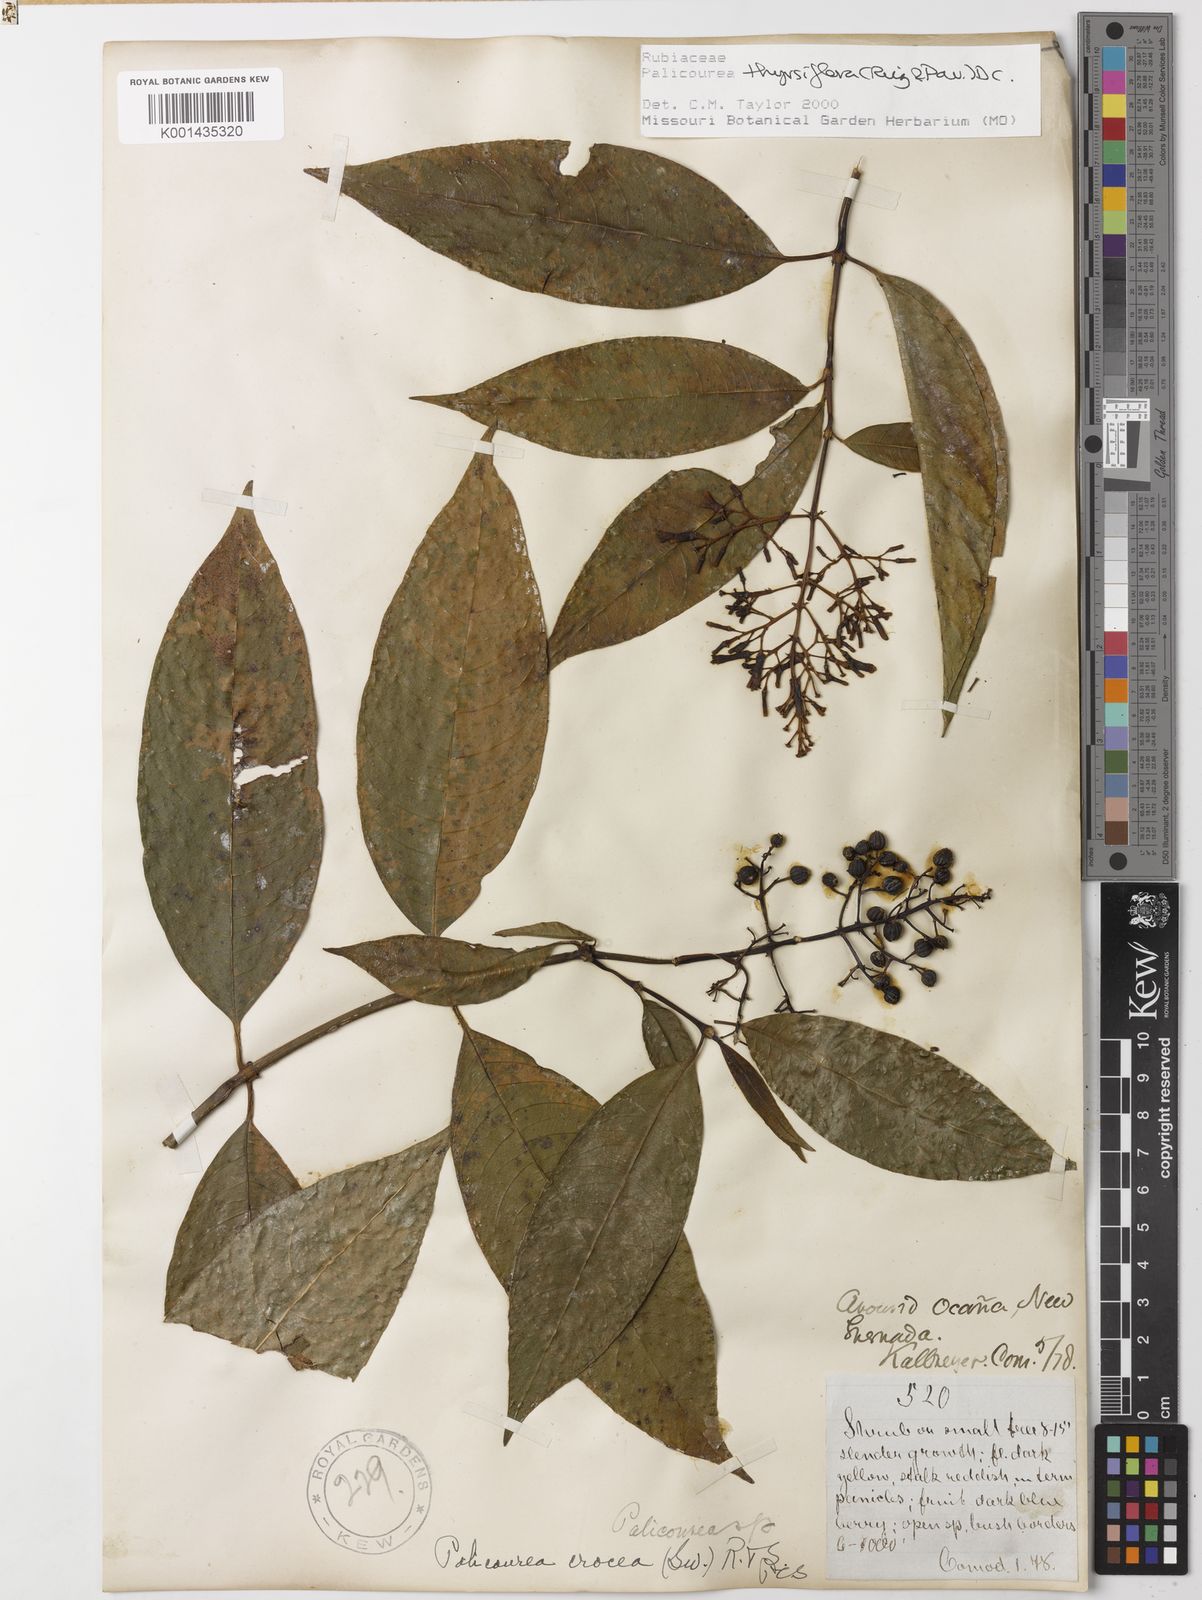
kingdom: Plantae
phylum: Tracheophyta
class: Magnoliopsida
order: Gentianales
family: Rubiaceae
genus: Palicourea
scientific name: Palicourea thyrsiflora
